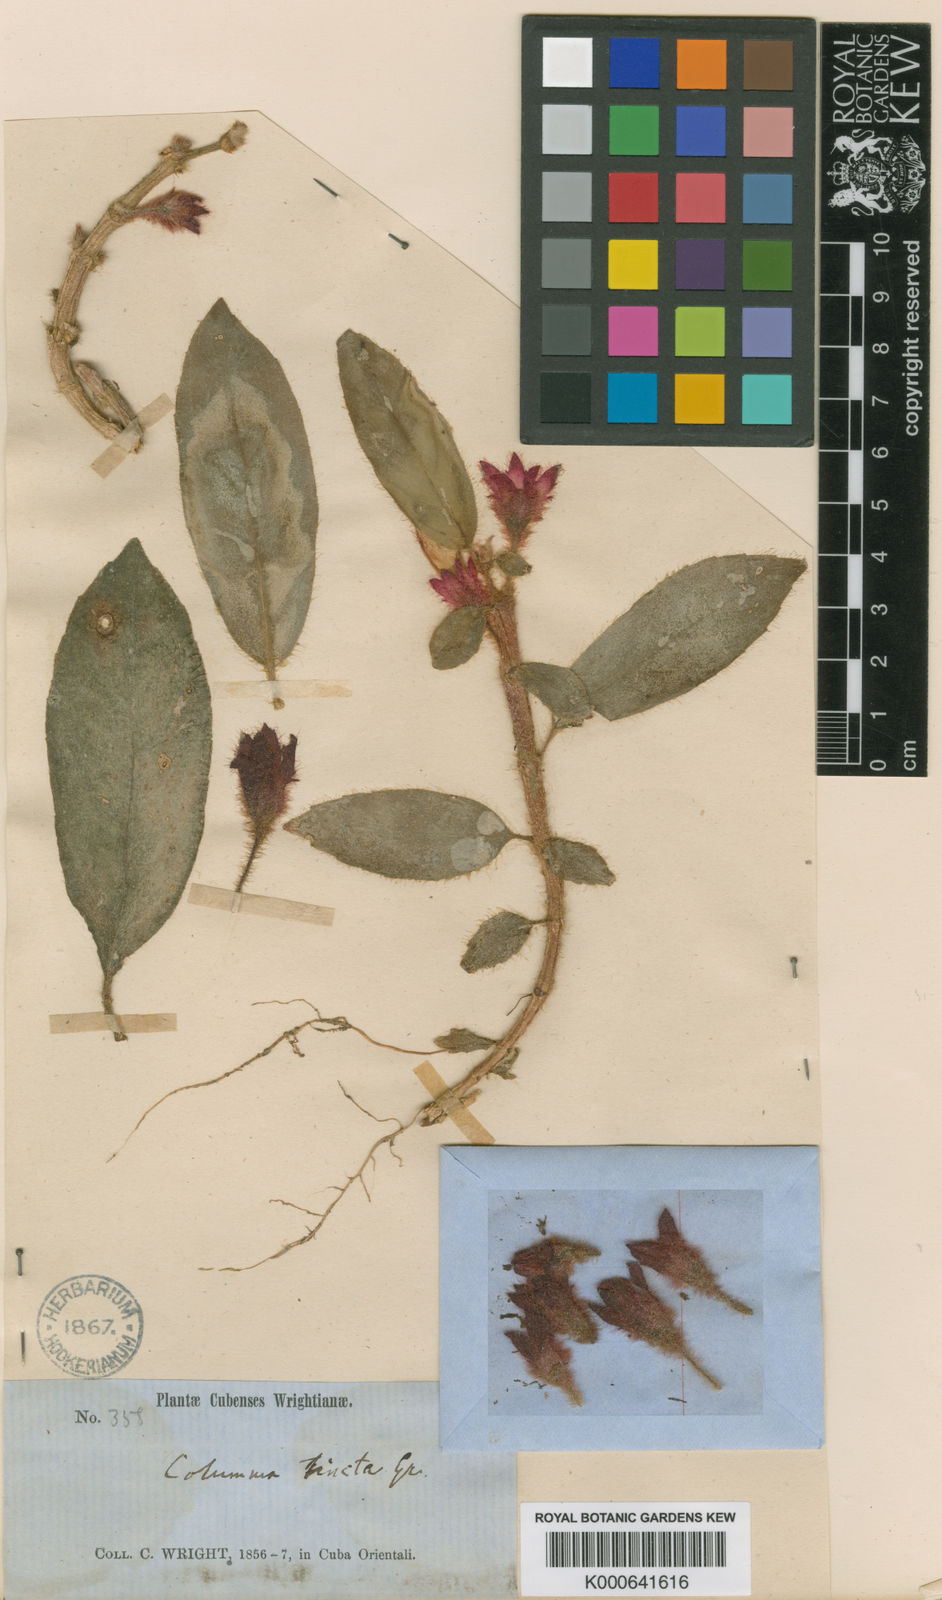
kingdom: Plantae
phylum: Tracheophyta
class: Magnoliopsida
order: Lamiales
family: Gesneriaceae
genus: Columnea
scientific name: Columnea tincta
